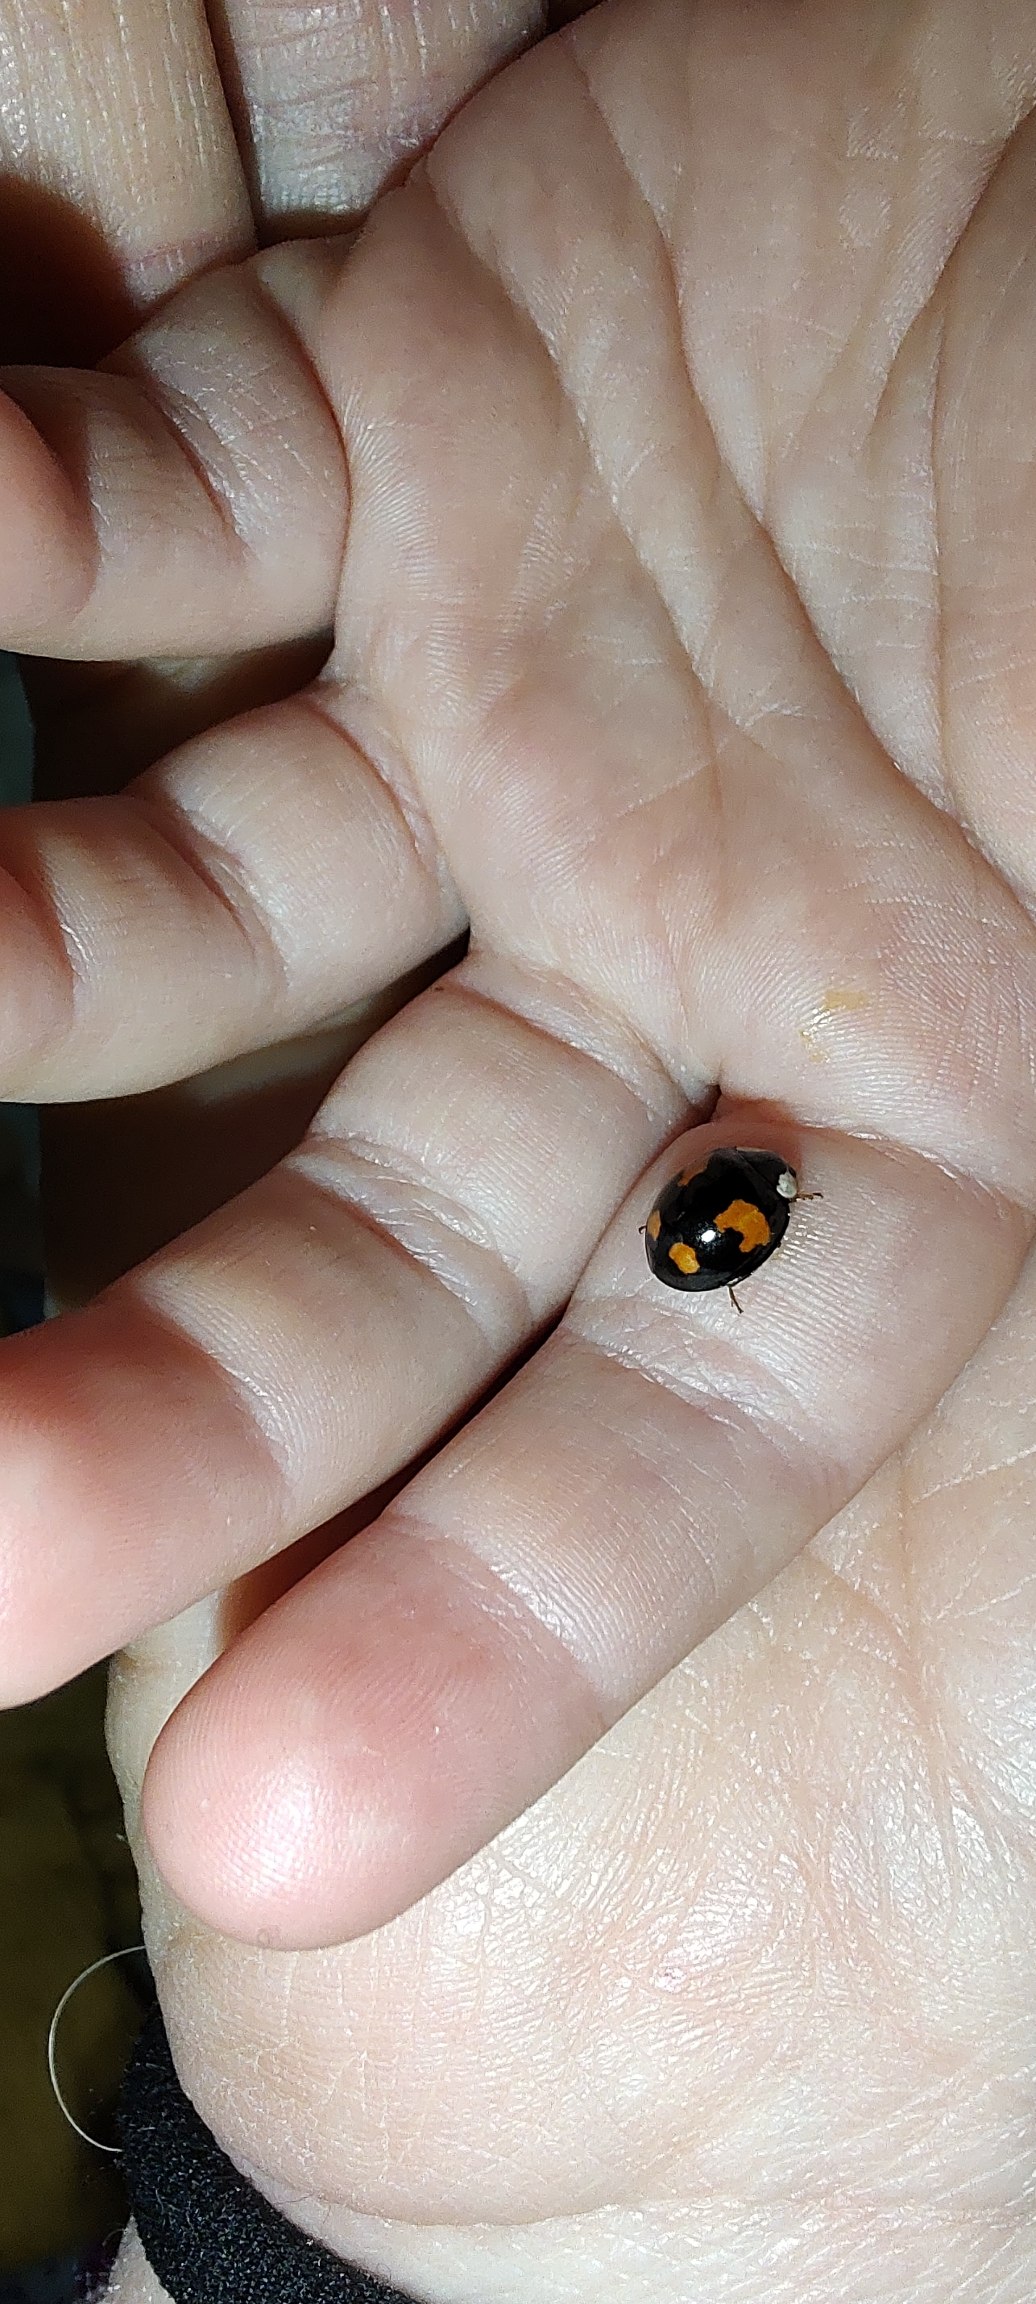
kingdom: Animalia
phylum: Arthropoda
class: Insecta
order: Coleoptera
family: Coccinellidae
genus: Harmonia
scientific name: Harmonia axyridis
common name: Harlekinmariehøne
